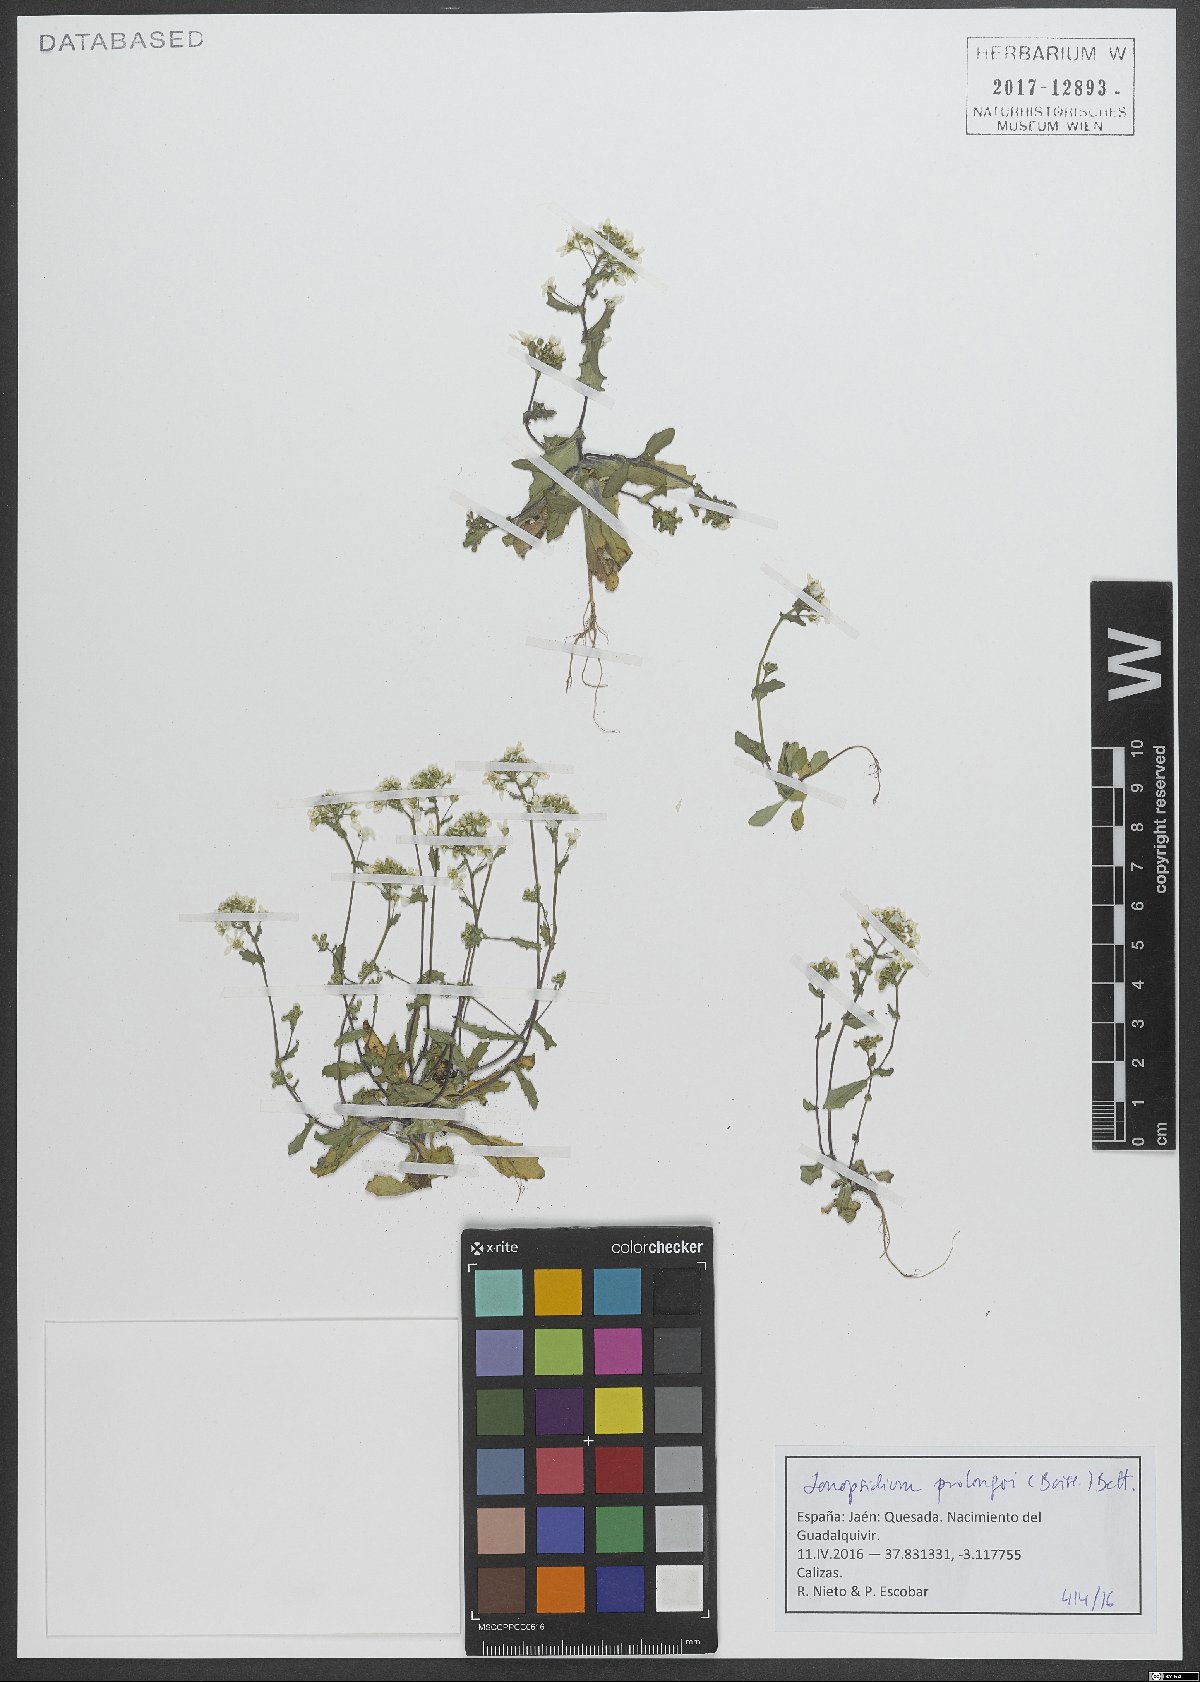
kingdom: Plantae
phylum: Tracheophyta
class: Magnoliopsida
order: Brassicales
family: Brassicaceae
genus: Ionopsidium
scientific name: Ionopsidium prolongoi
